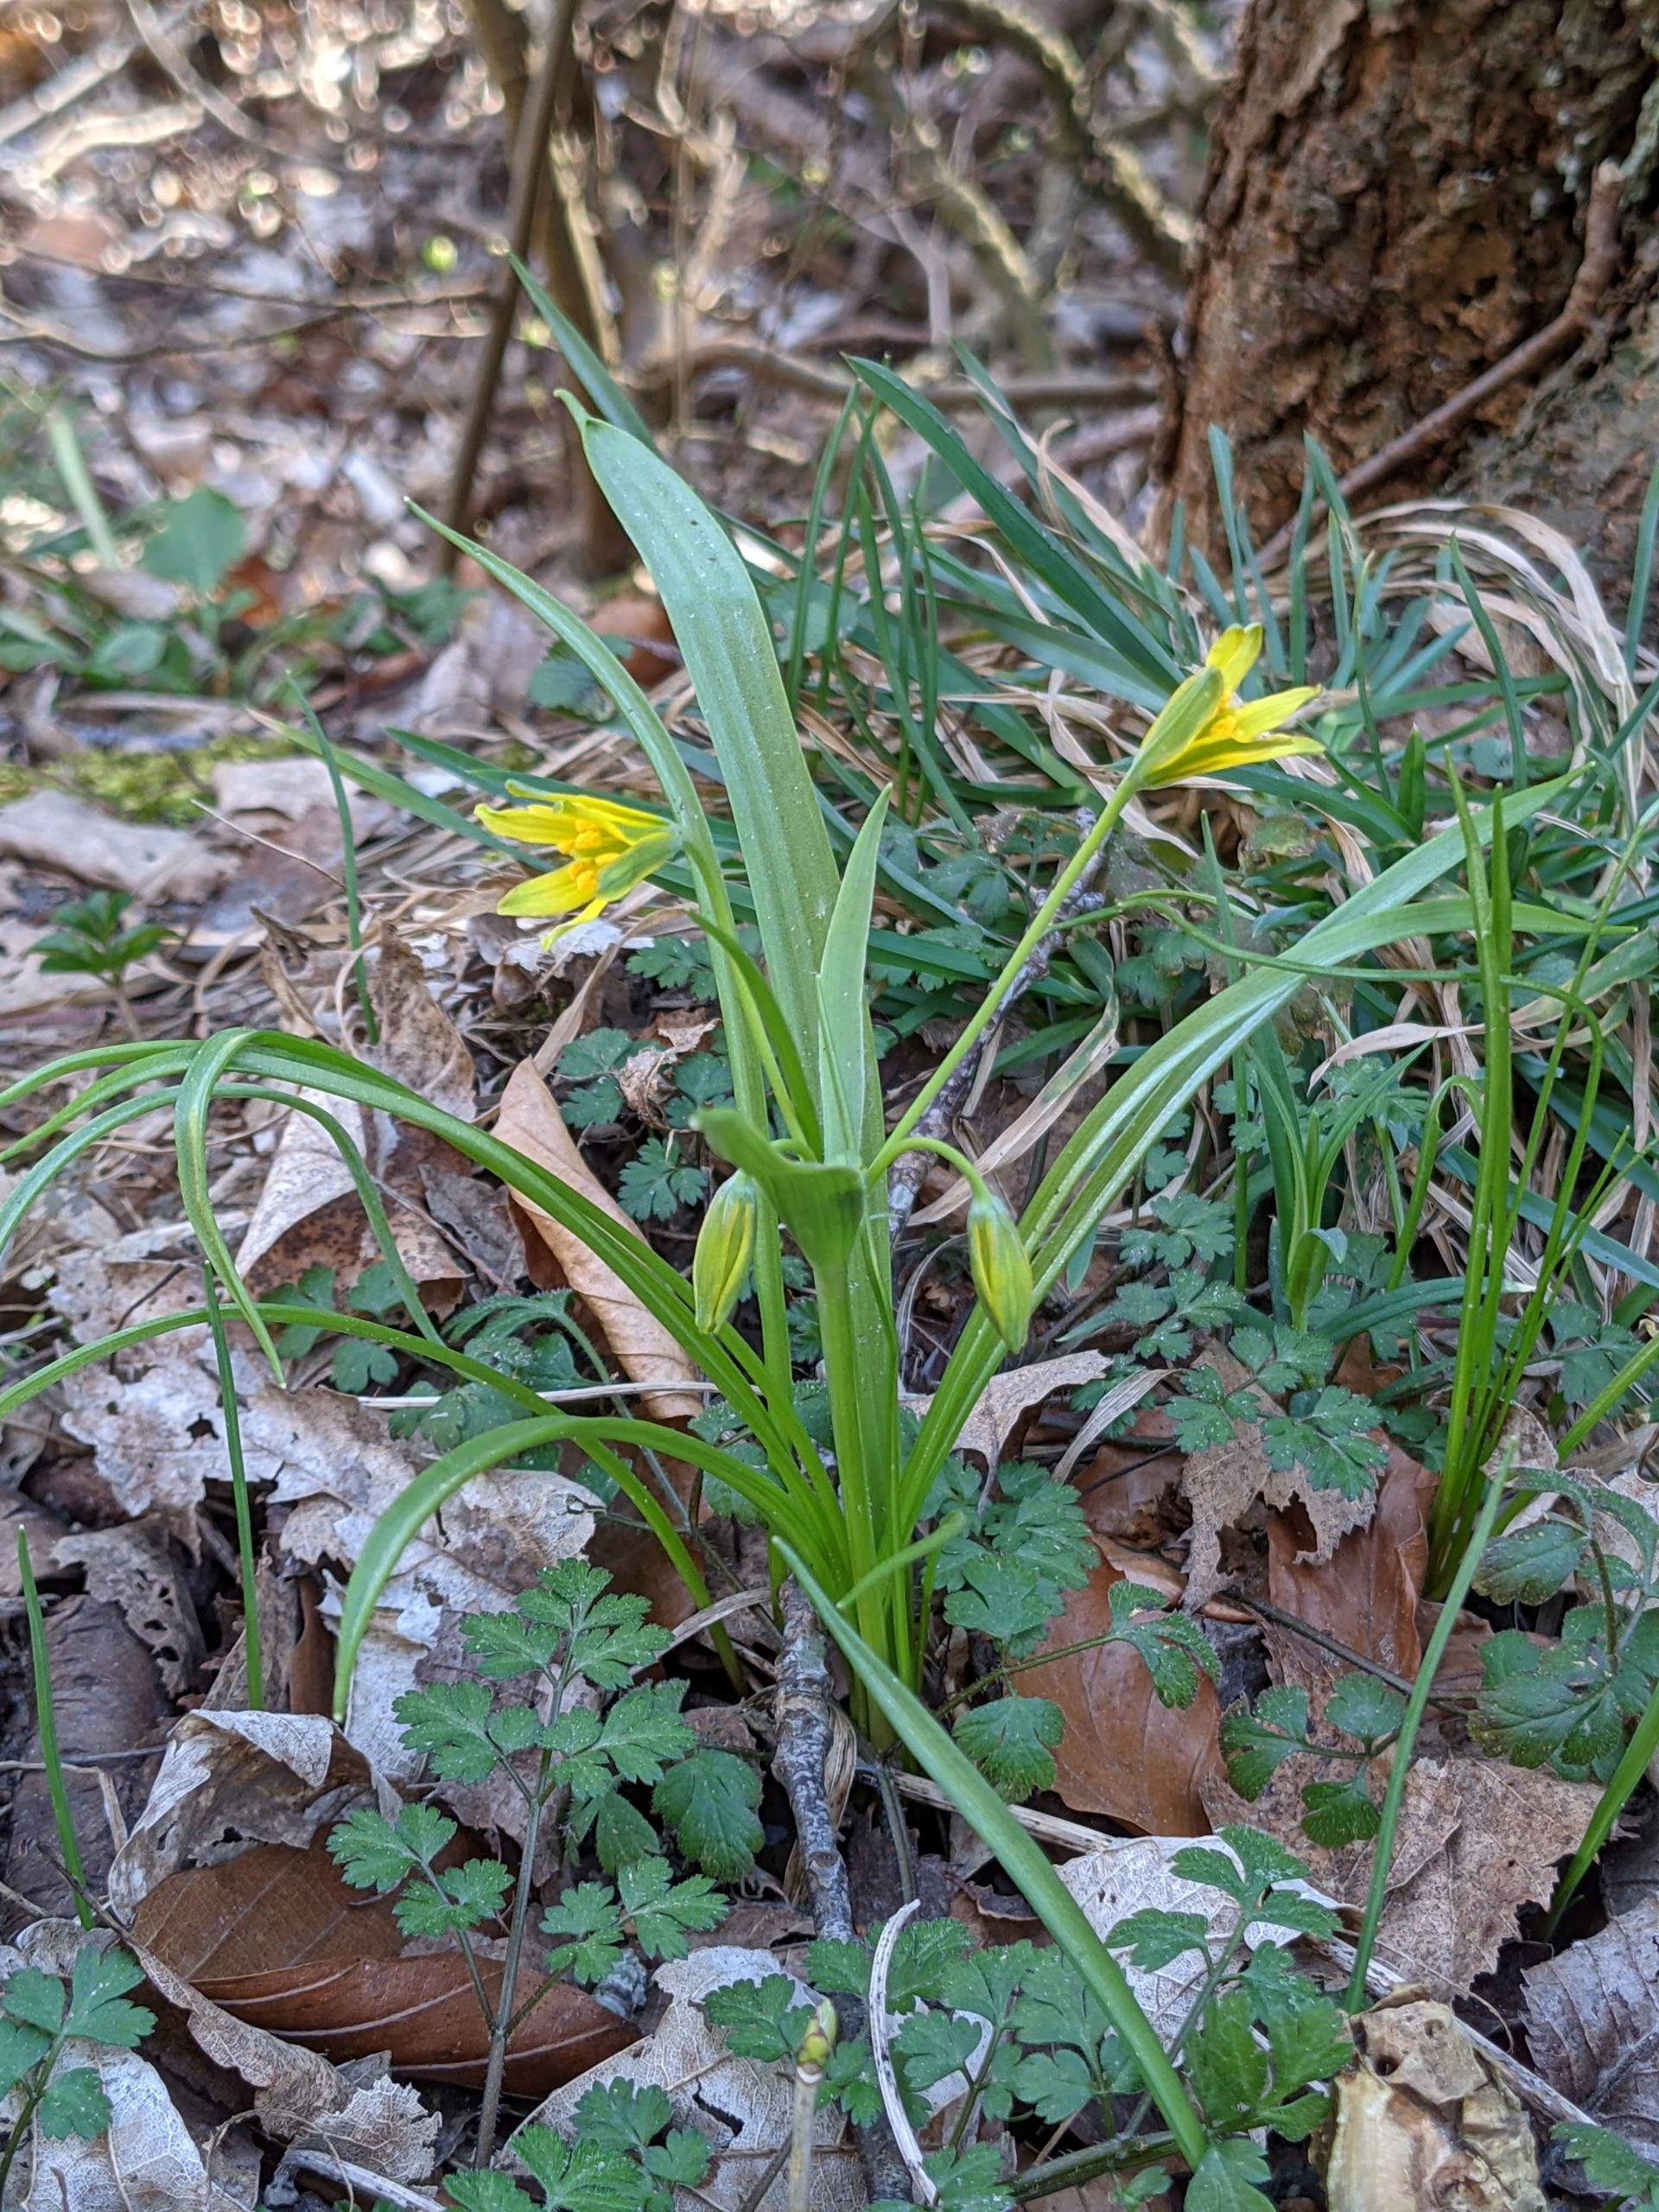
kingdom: Plantae
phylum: Tracheophyta
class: Liliopsida
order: Liliales
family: Liliaceae
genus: Gagea
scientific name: Gagea lutea
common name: Almindelig guldstjerne
